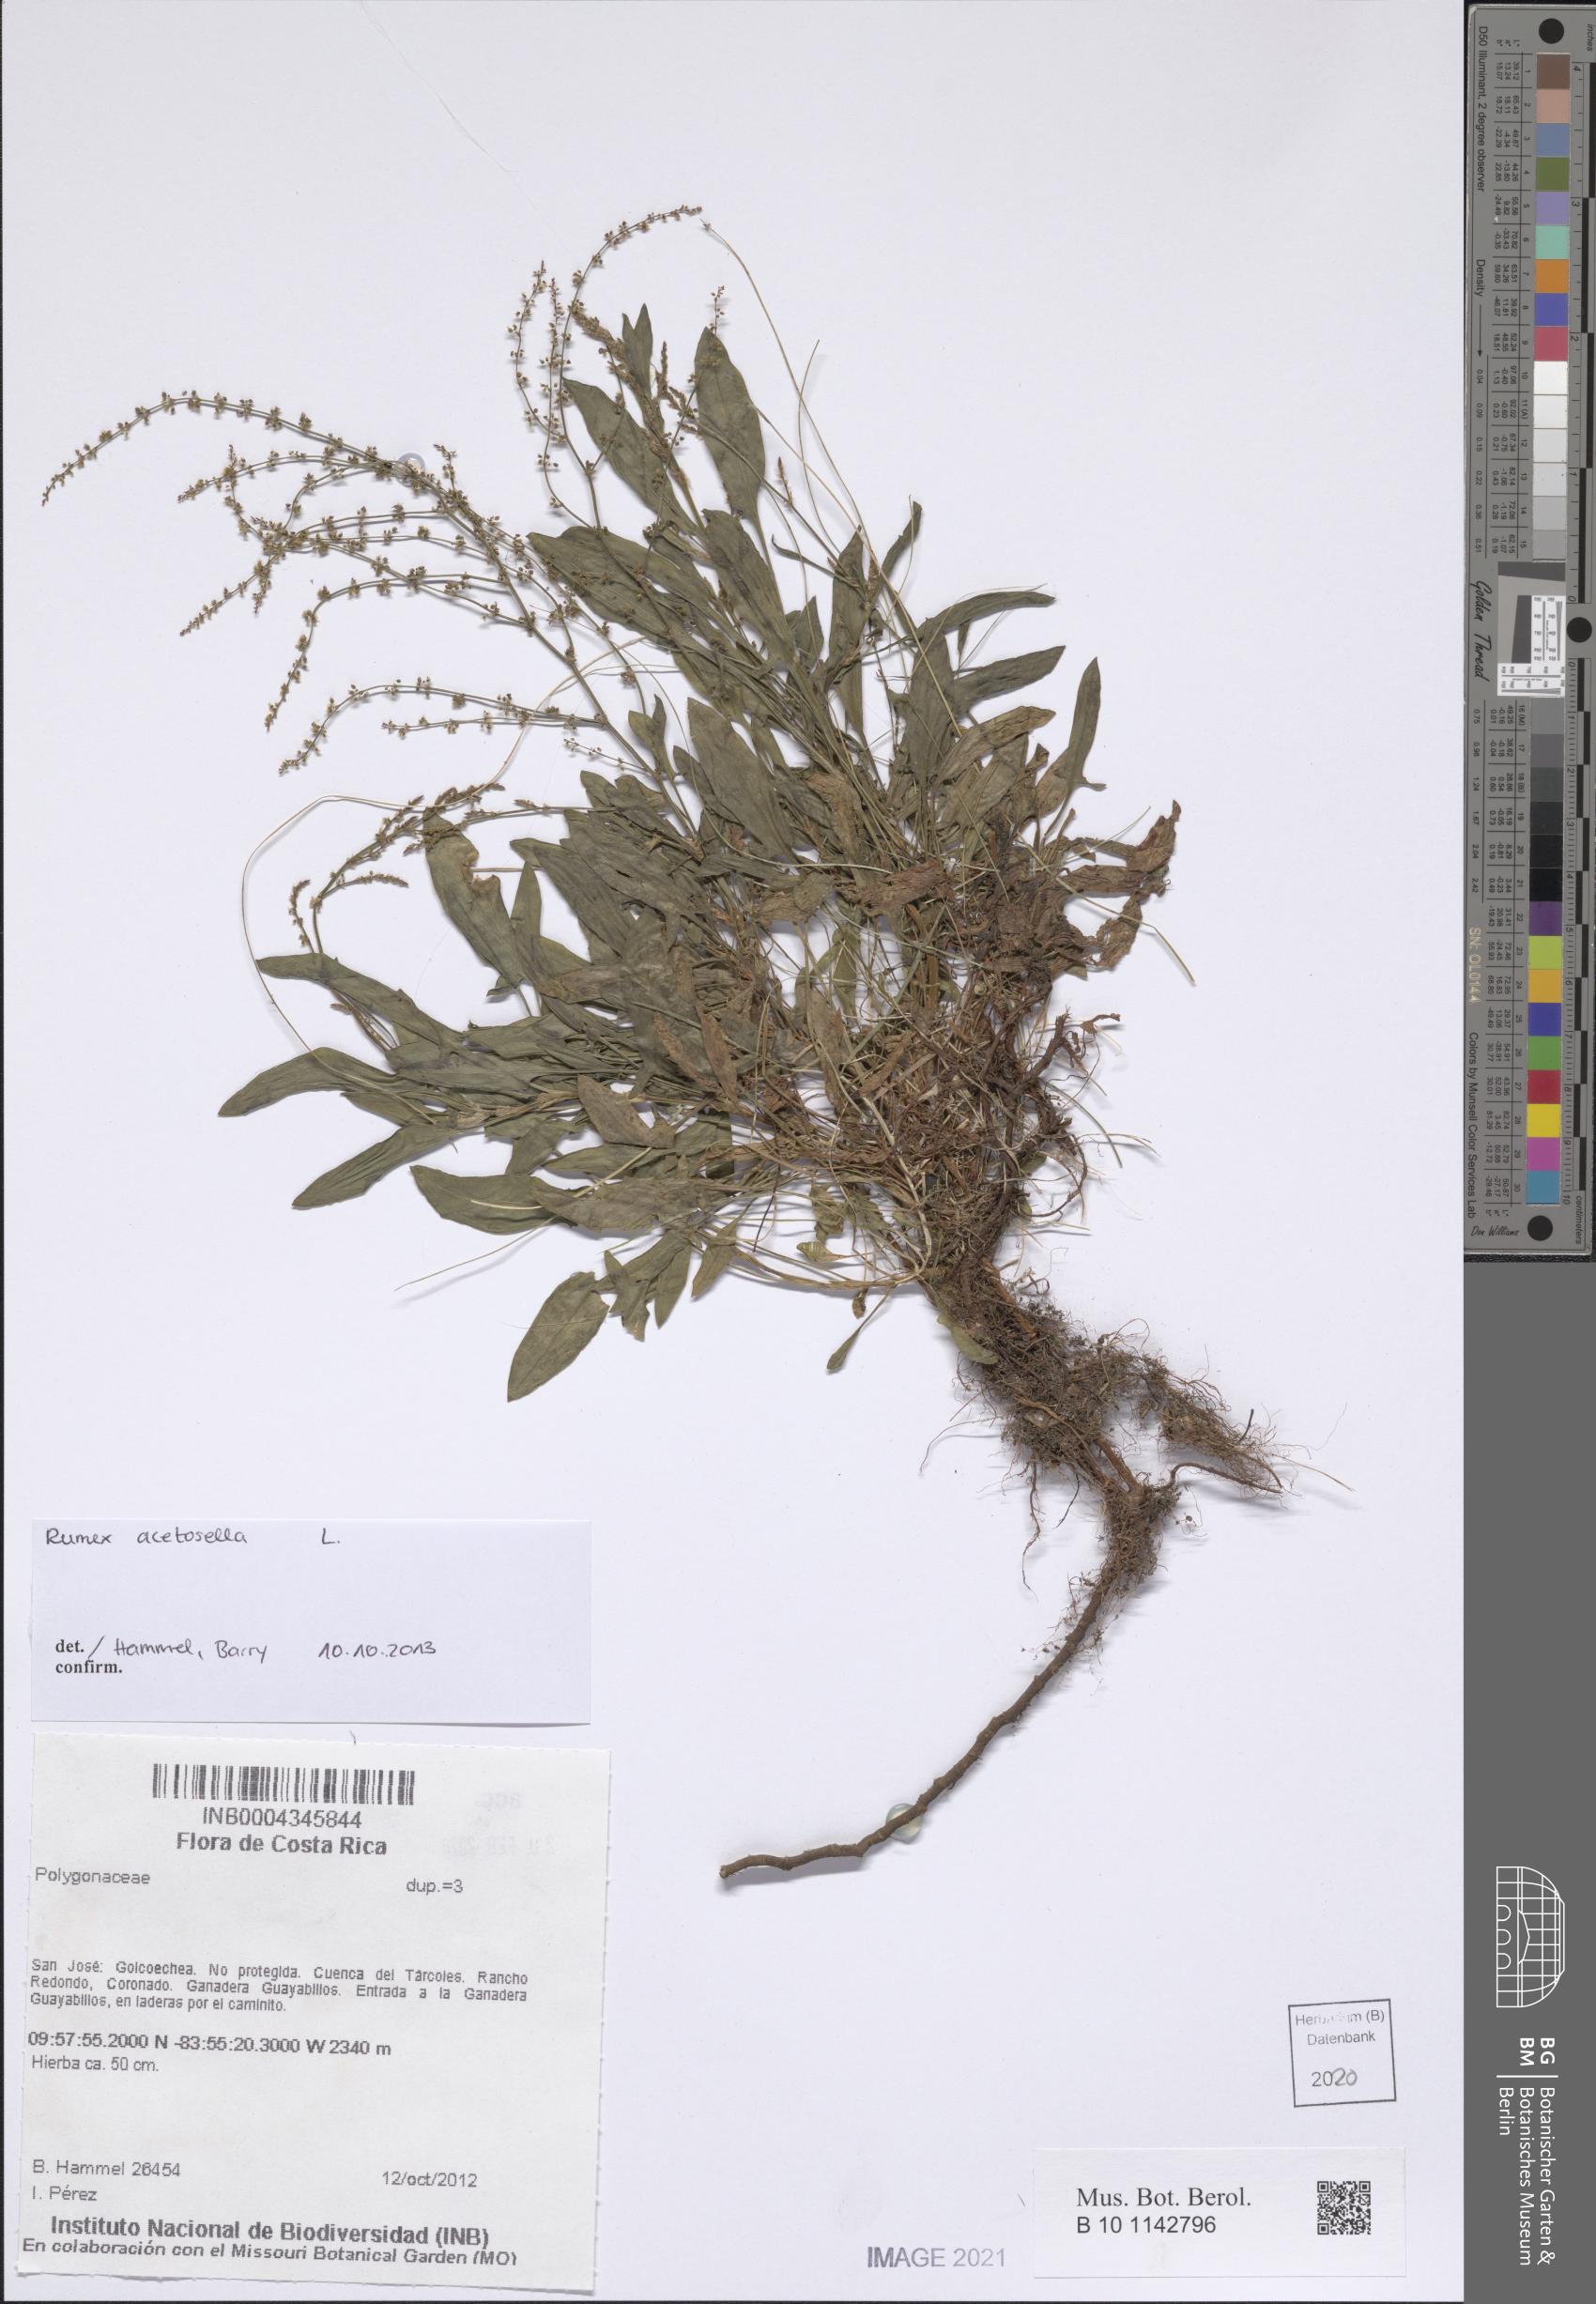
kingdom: Plantae
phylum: Tracheophyta
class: Magnoliopsida
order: Caryophyllales
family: Polygonaceae
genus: Rumex
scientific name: Rumex acetosella
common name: Common sheep sorrel
